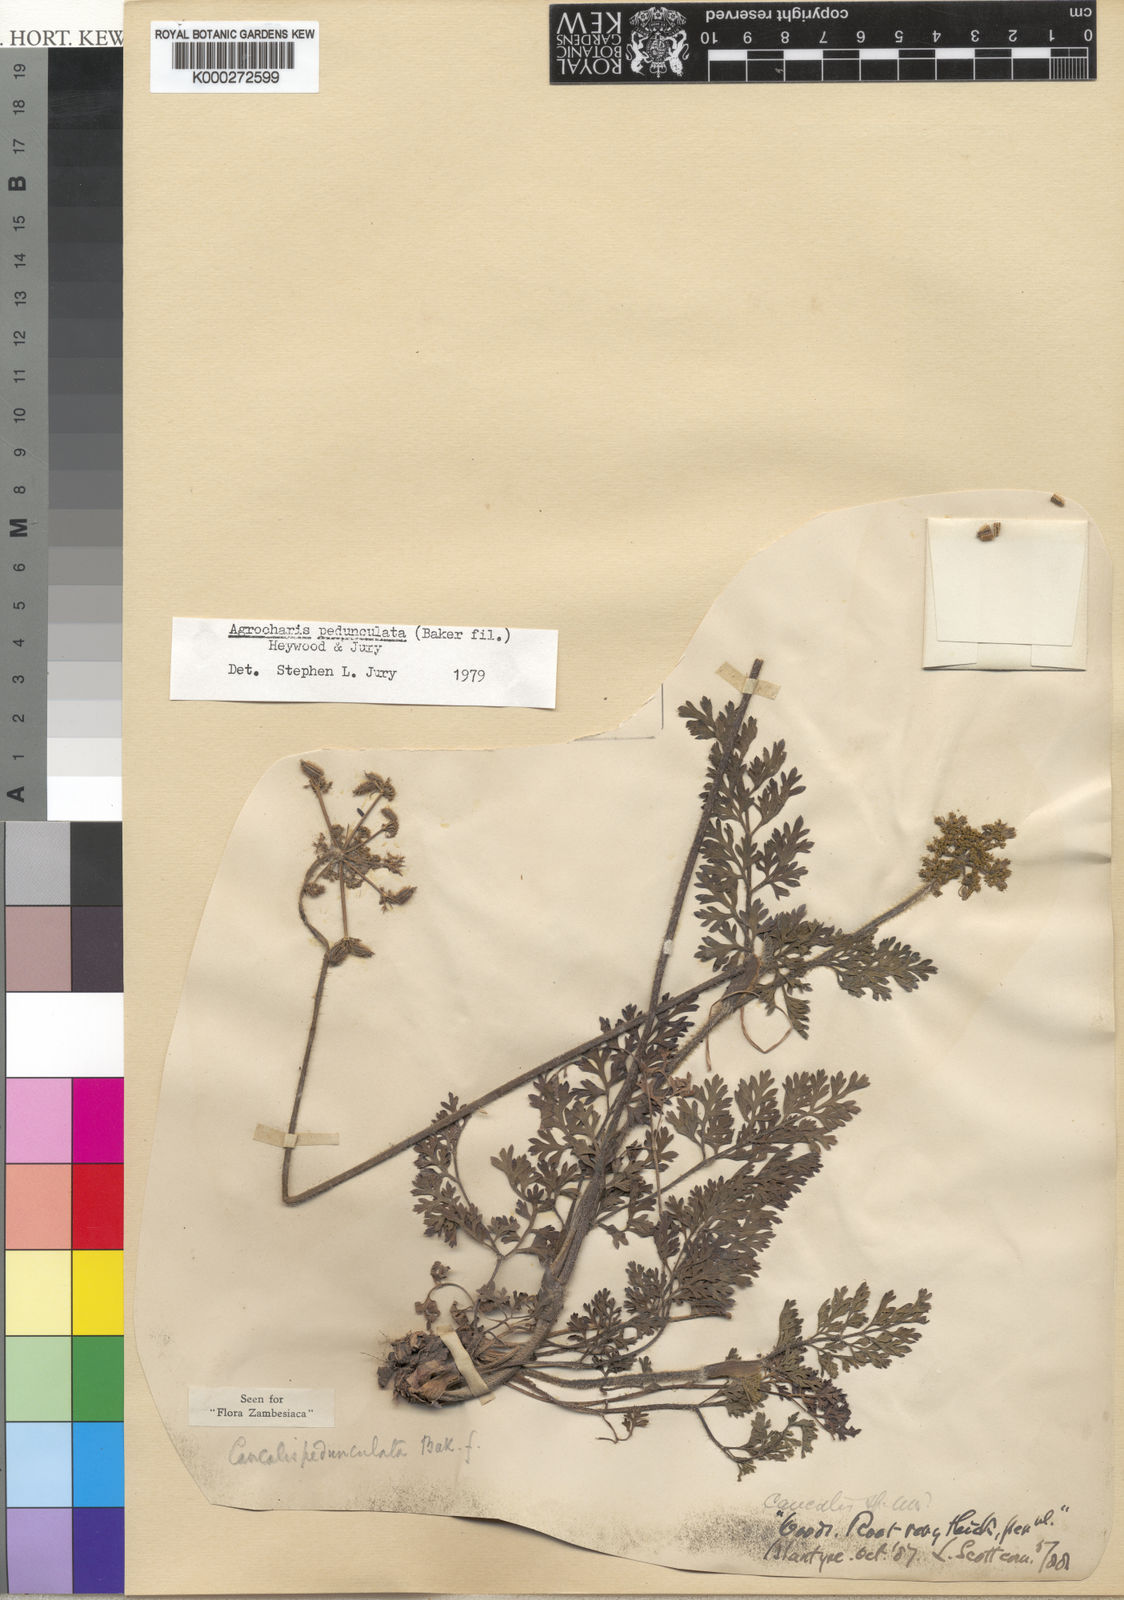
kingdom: Plantae
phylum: Tracheophyta
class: Magnoliopsida
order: Apiales
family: Apiaceae
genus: Daucus
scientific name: Daucus pedunculatus
